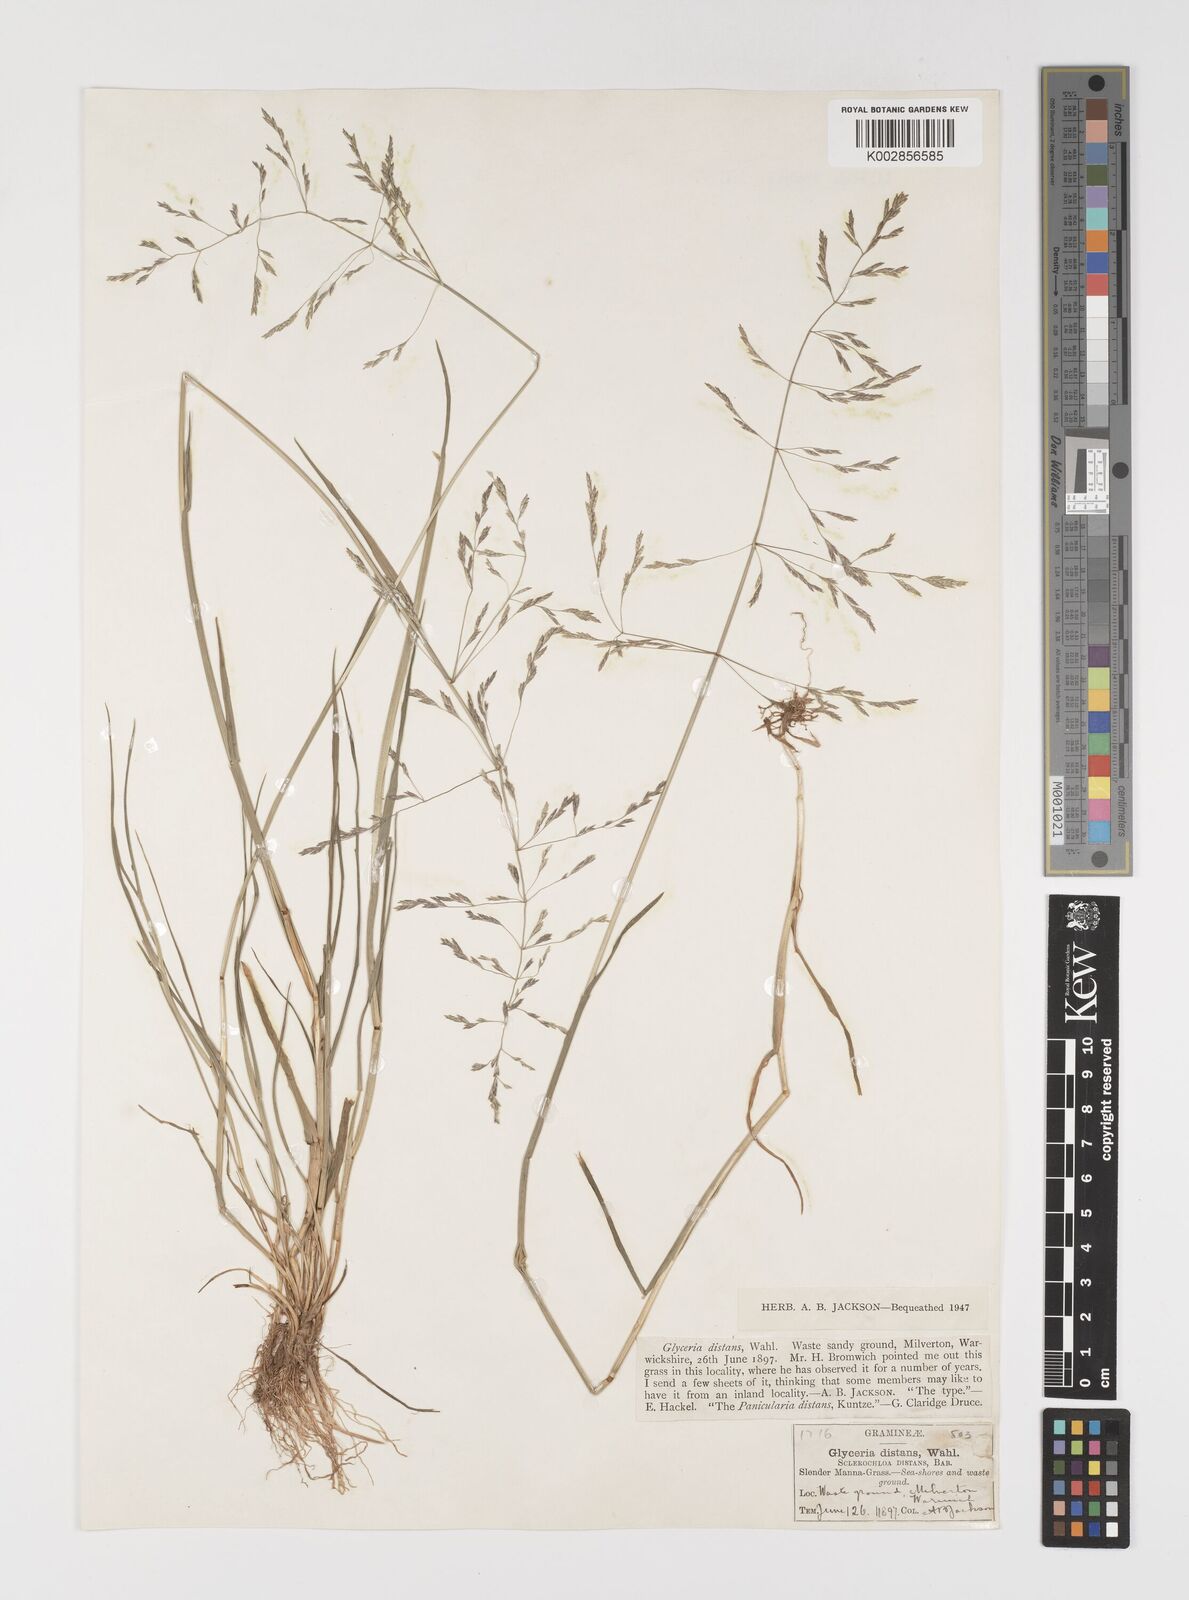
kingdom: Plantae
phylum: Tracheophyta
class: Liliopsida
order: Poales
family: Poaceae
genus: Puccinellia
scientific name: Puccinellia distans
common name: Weeping alkaligrass
